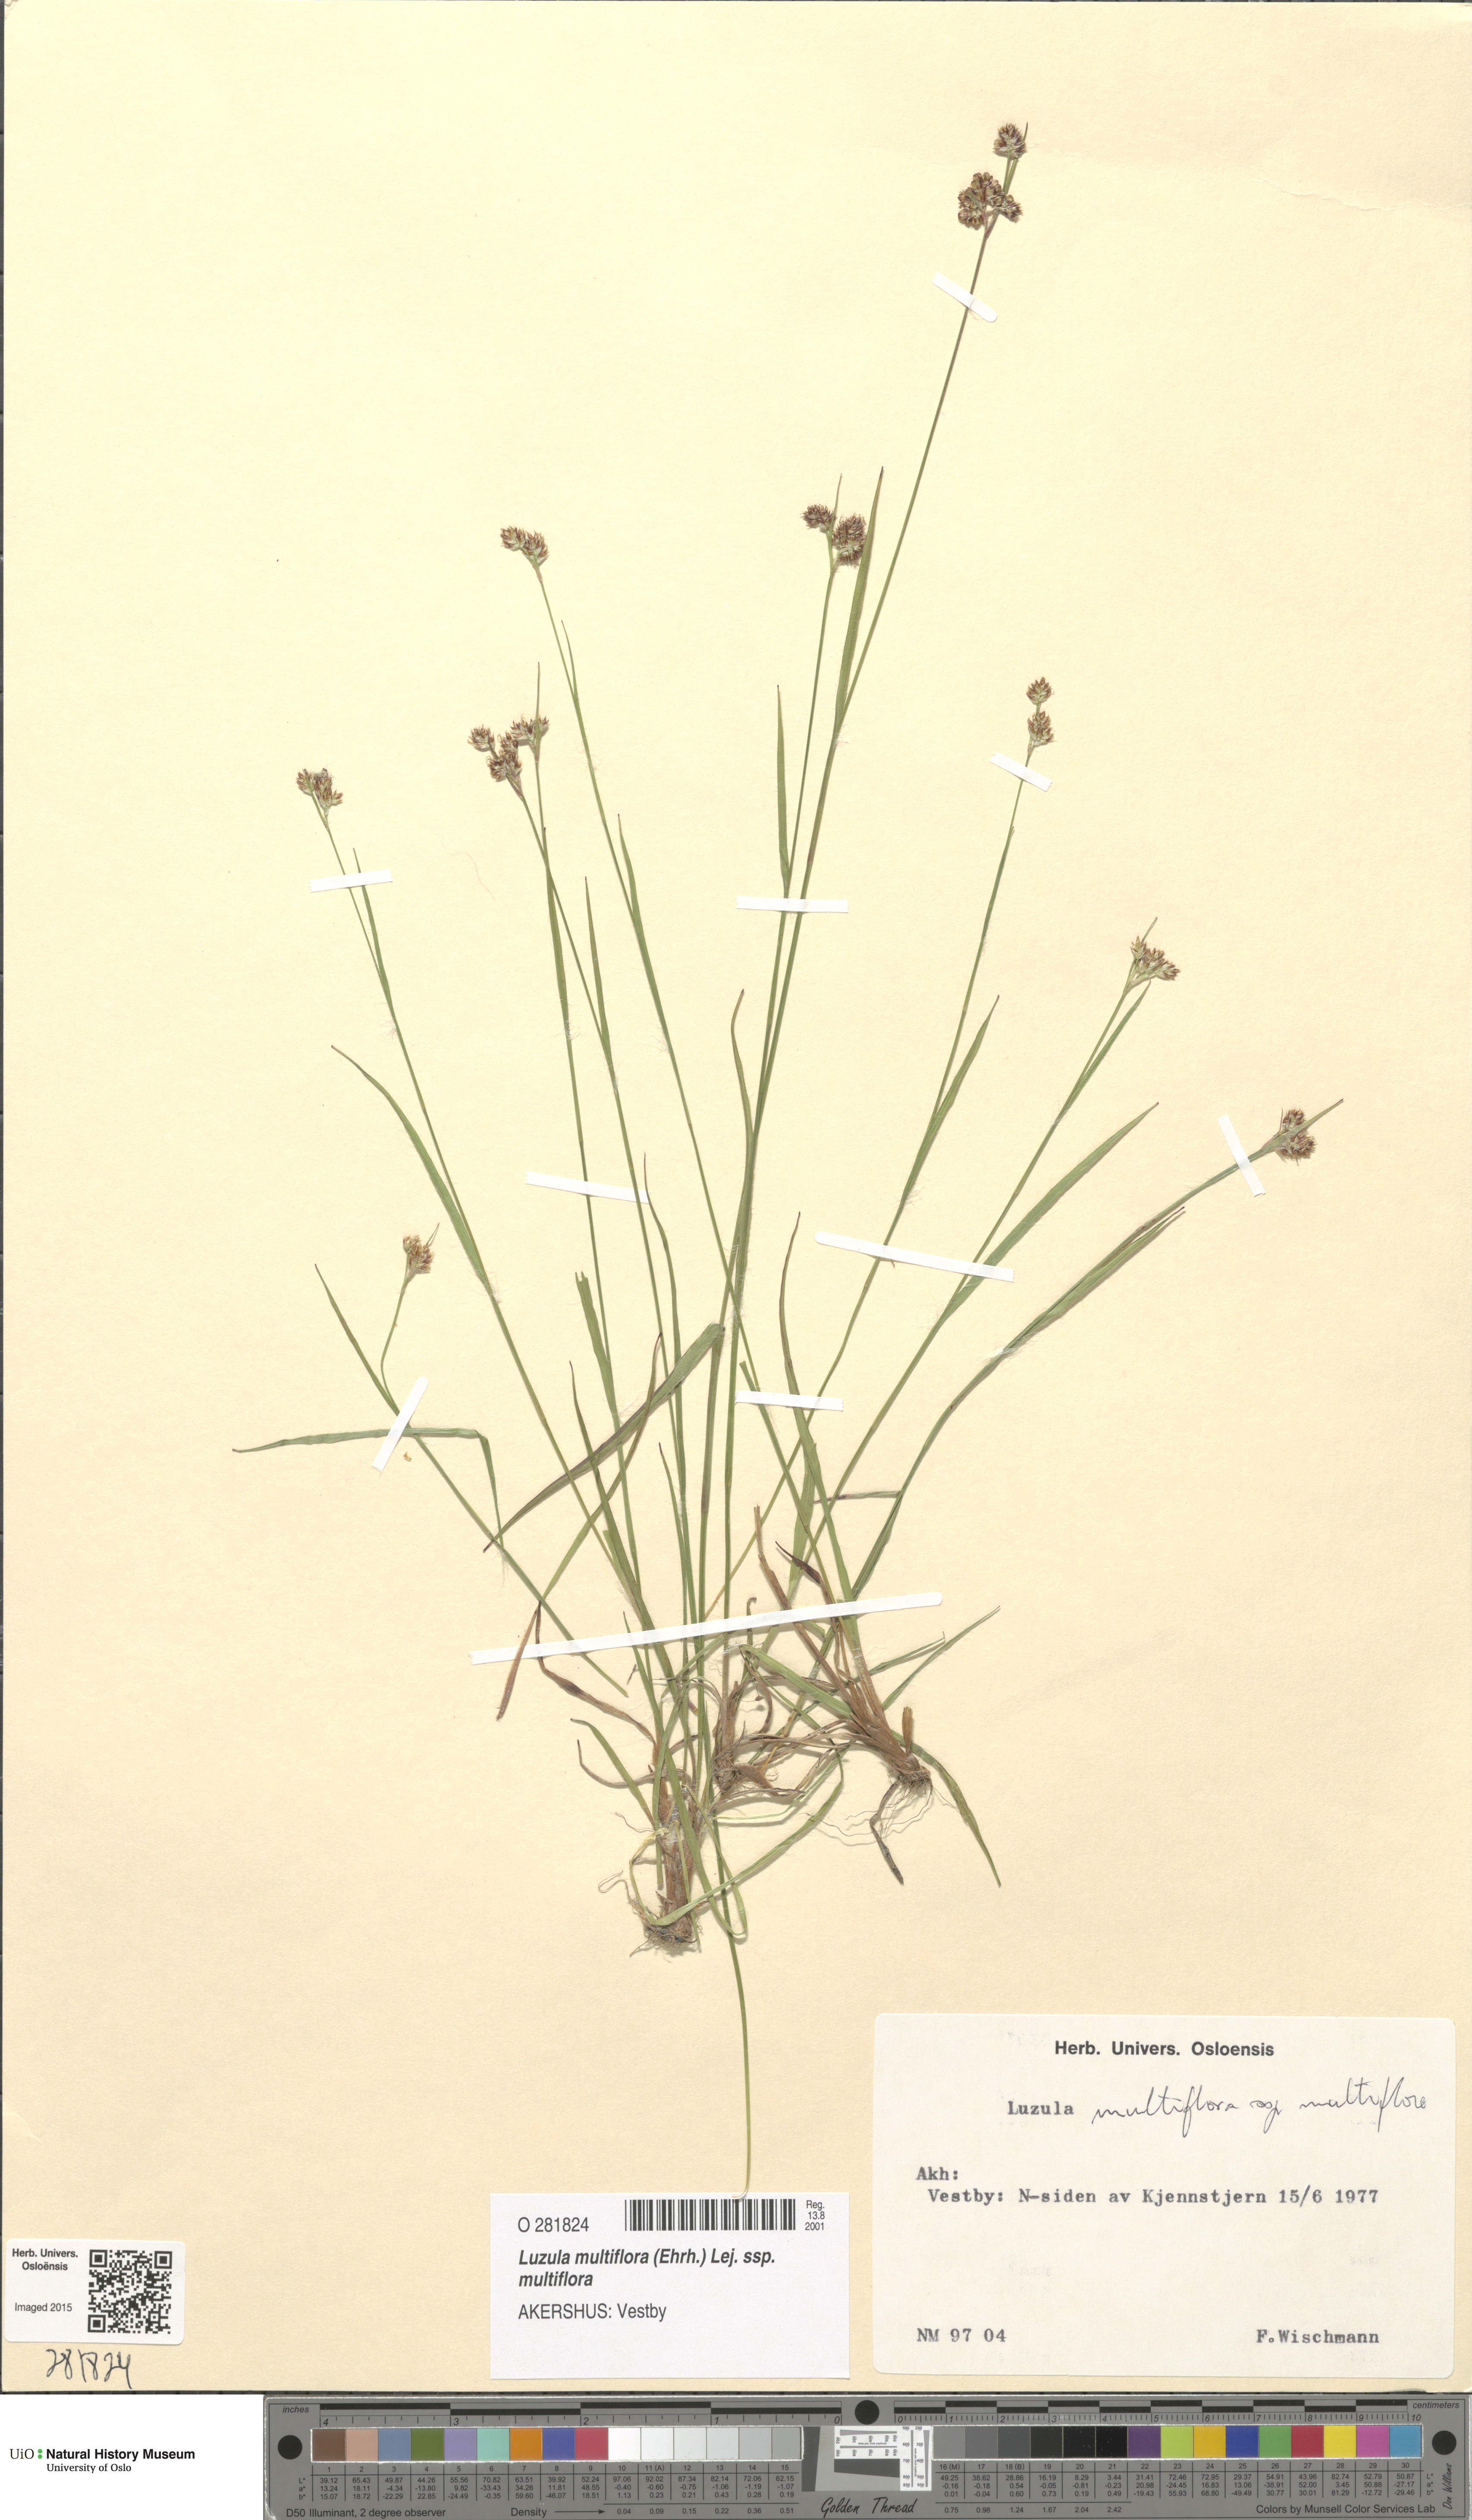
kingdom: Plantae
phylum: Tracheophyta
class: Liliopsida
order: Poales
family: Juncaceae
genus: Luzula
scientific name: Luzula multiflora
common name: Heath wood-rush
